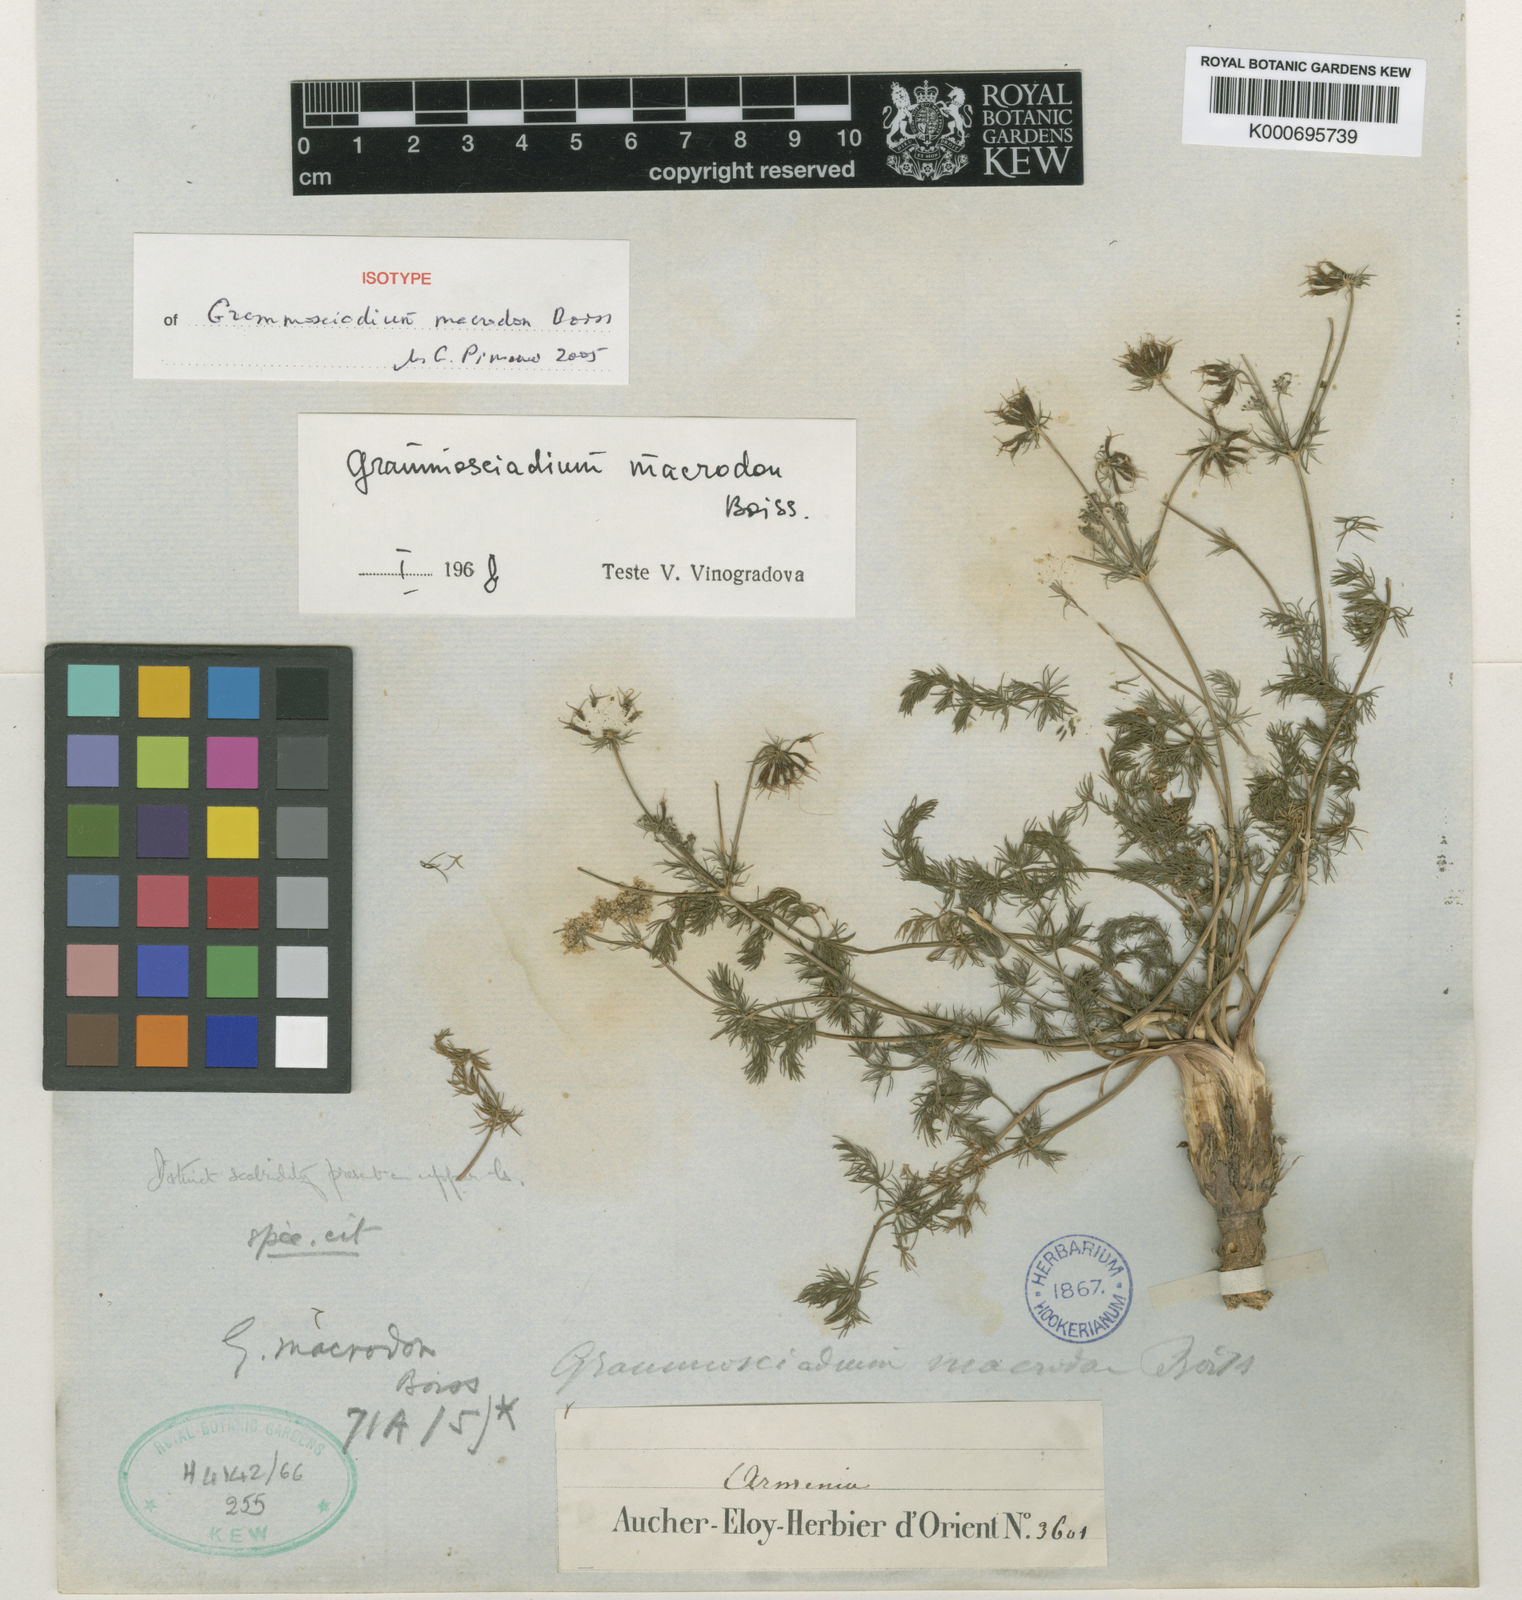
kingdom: Plantae
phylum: Tracheophyta
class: Magnoliopsida
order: Apiales
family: Apiaceae
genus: Grammosciadium
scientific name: Grammosciadium macrodon
